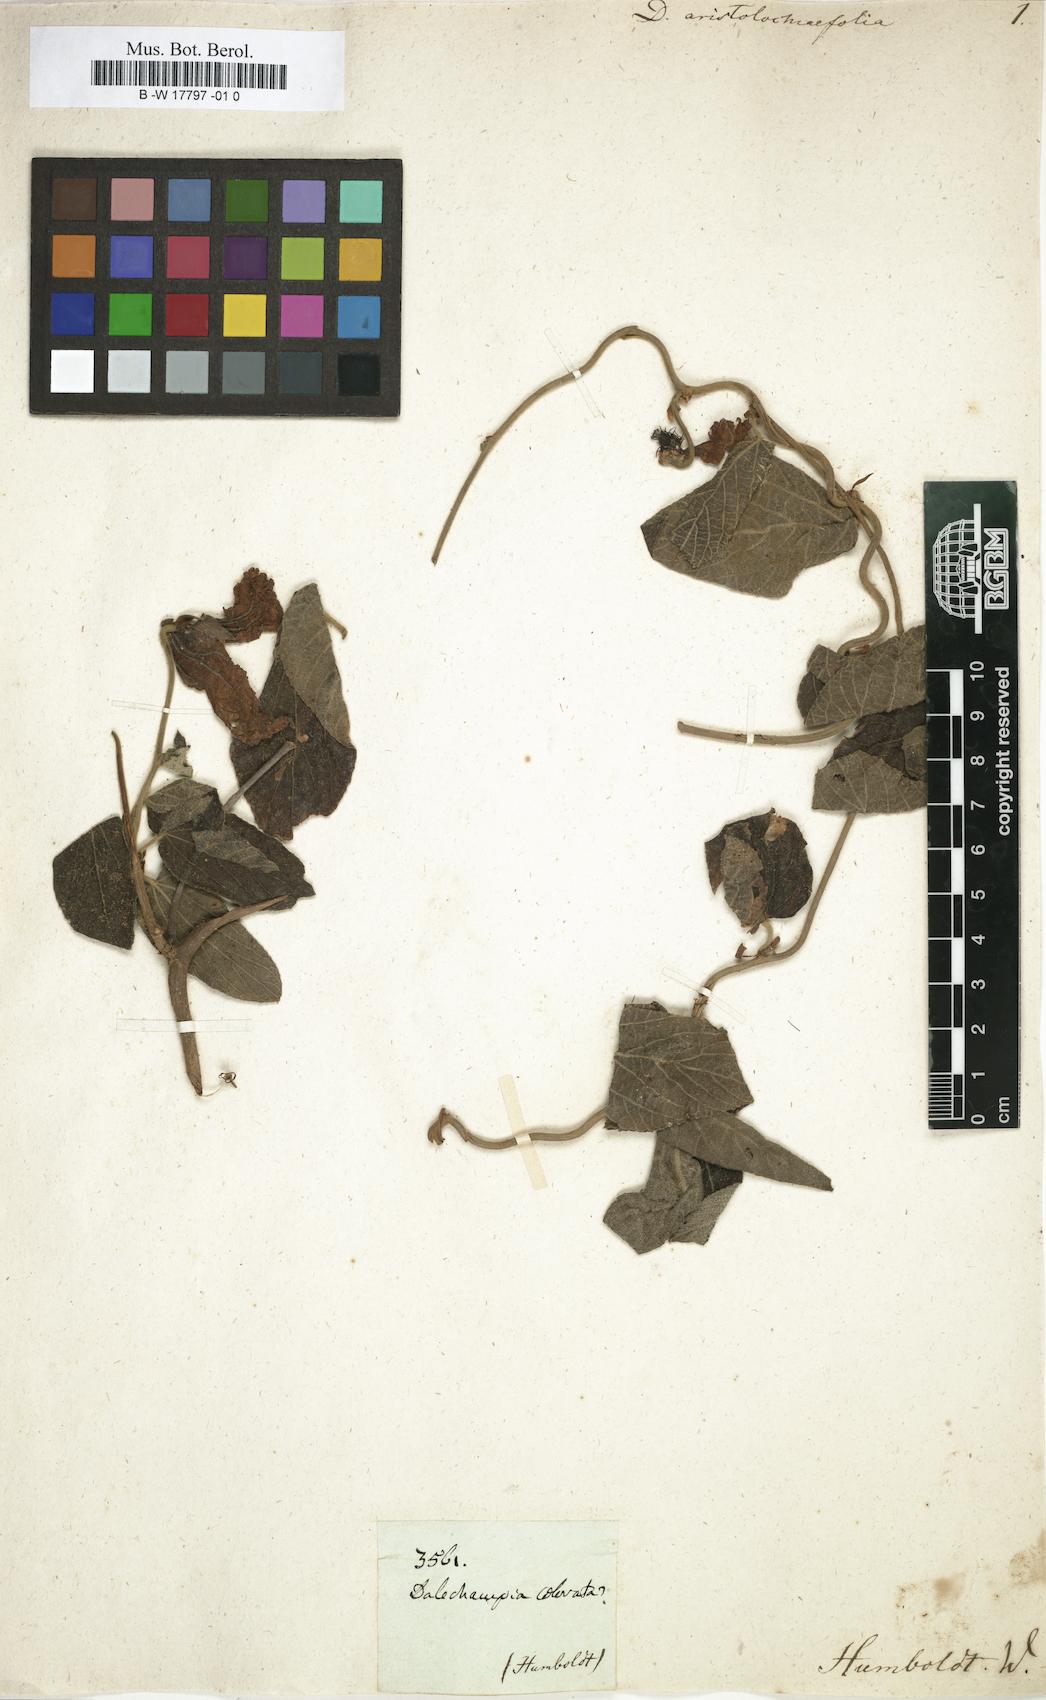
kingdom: Plantae
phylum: Tracheophyta
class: Magnoliopsida
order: Malpighiales
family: Euphorbiaceae
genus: Dalechampia
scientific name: Dalechampia aristolochiifolia
